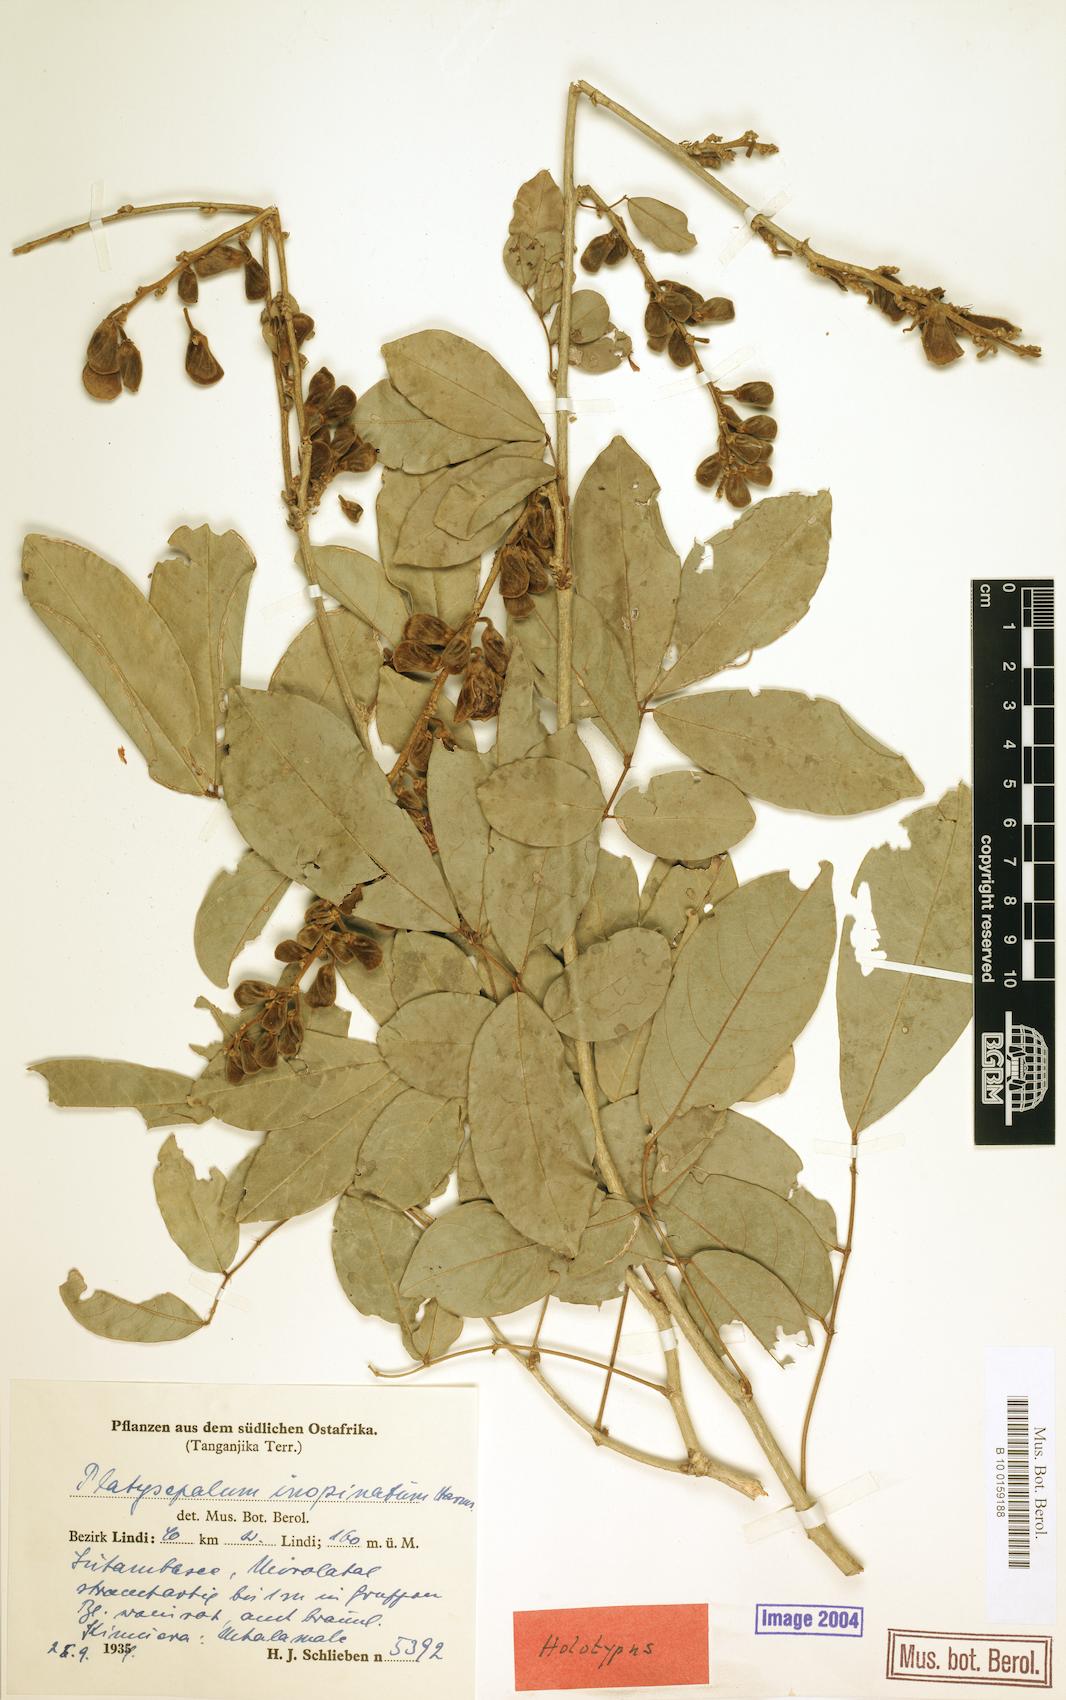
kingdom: Plantae
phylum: Tracheophyta
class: Magnoliopsida
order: Fabales
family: Fabaceae
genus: Platysepalum
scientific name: Platysepalum inopinatum
